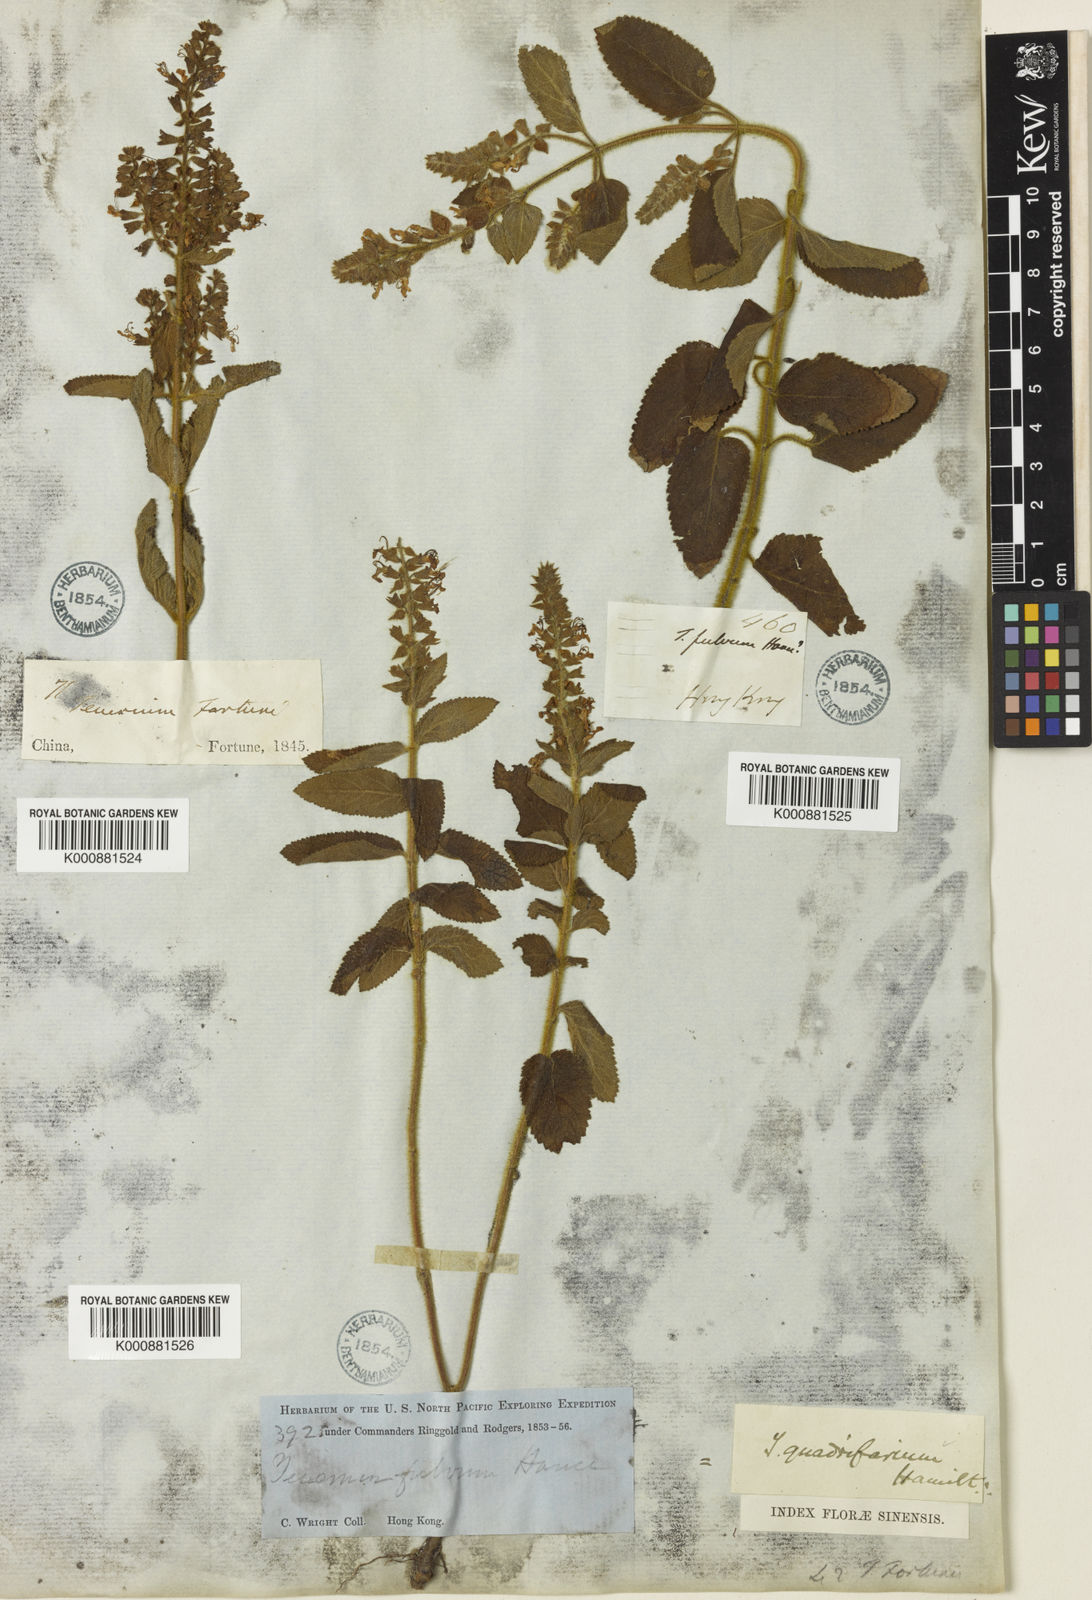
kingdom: Plantae
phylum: Tracheophyta
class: Magnoliopsida
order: Lamiales
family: Lamiaceae
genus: Teucrium
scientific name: Teucrium
